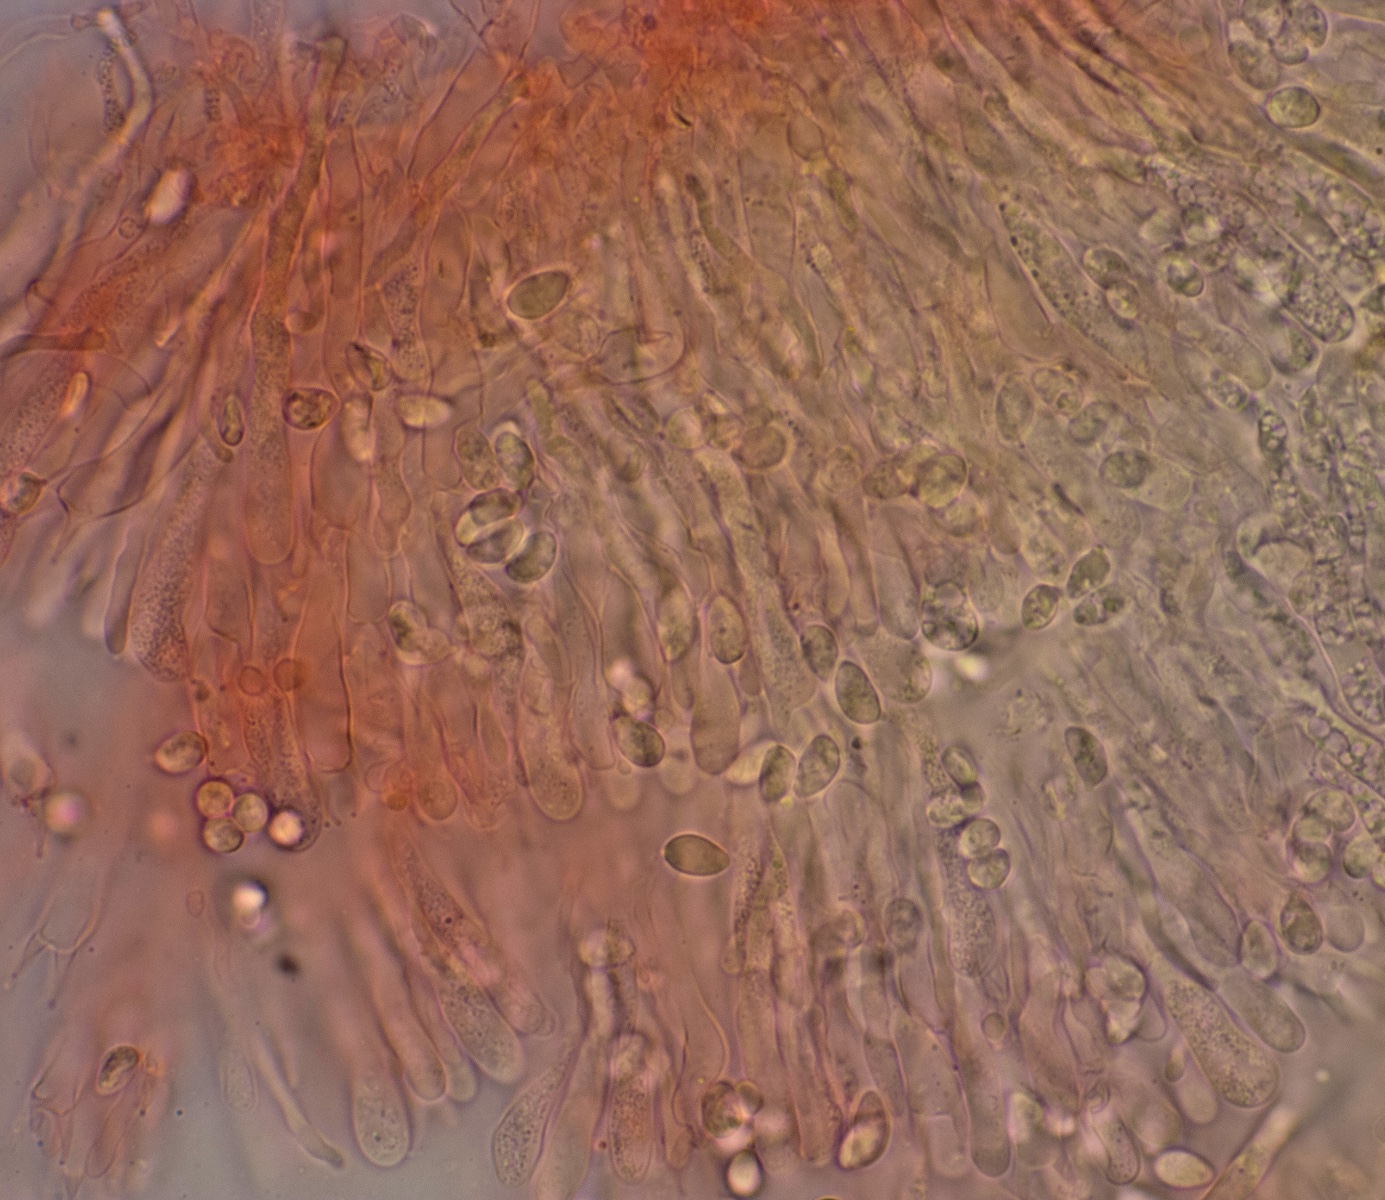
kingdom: Fungi
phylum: Basidiomycota
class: Agaricomycetes
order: Agaricales
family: Clavariaceae
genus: Clavulinopsis
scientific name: Clavulinopsis luteoalba
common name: abrikos-køllesvamp
